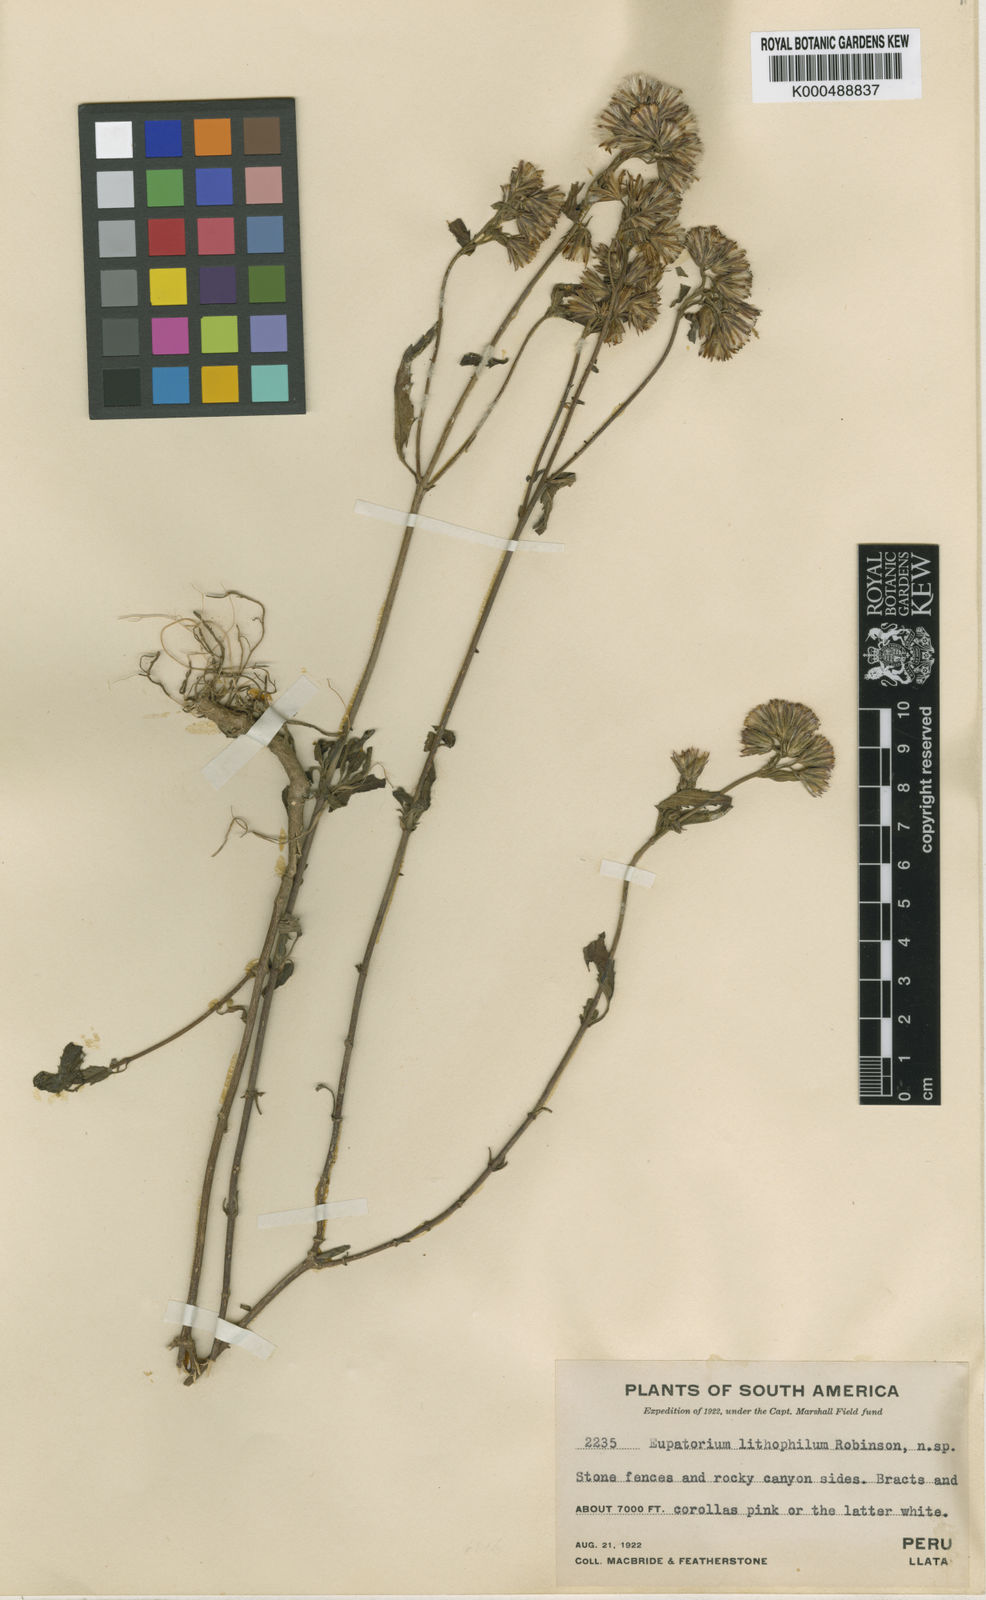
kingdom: Plantae
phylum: Tracheophyta
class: Magnoliopsida
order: Asterales
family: Asteraceae
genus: Fleischmannia
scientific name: Fleischmannia lithophila
